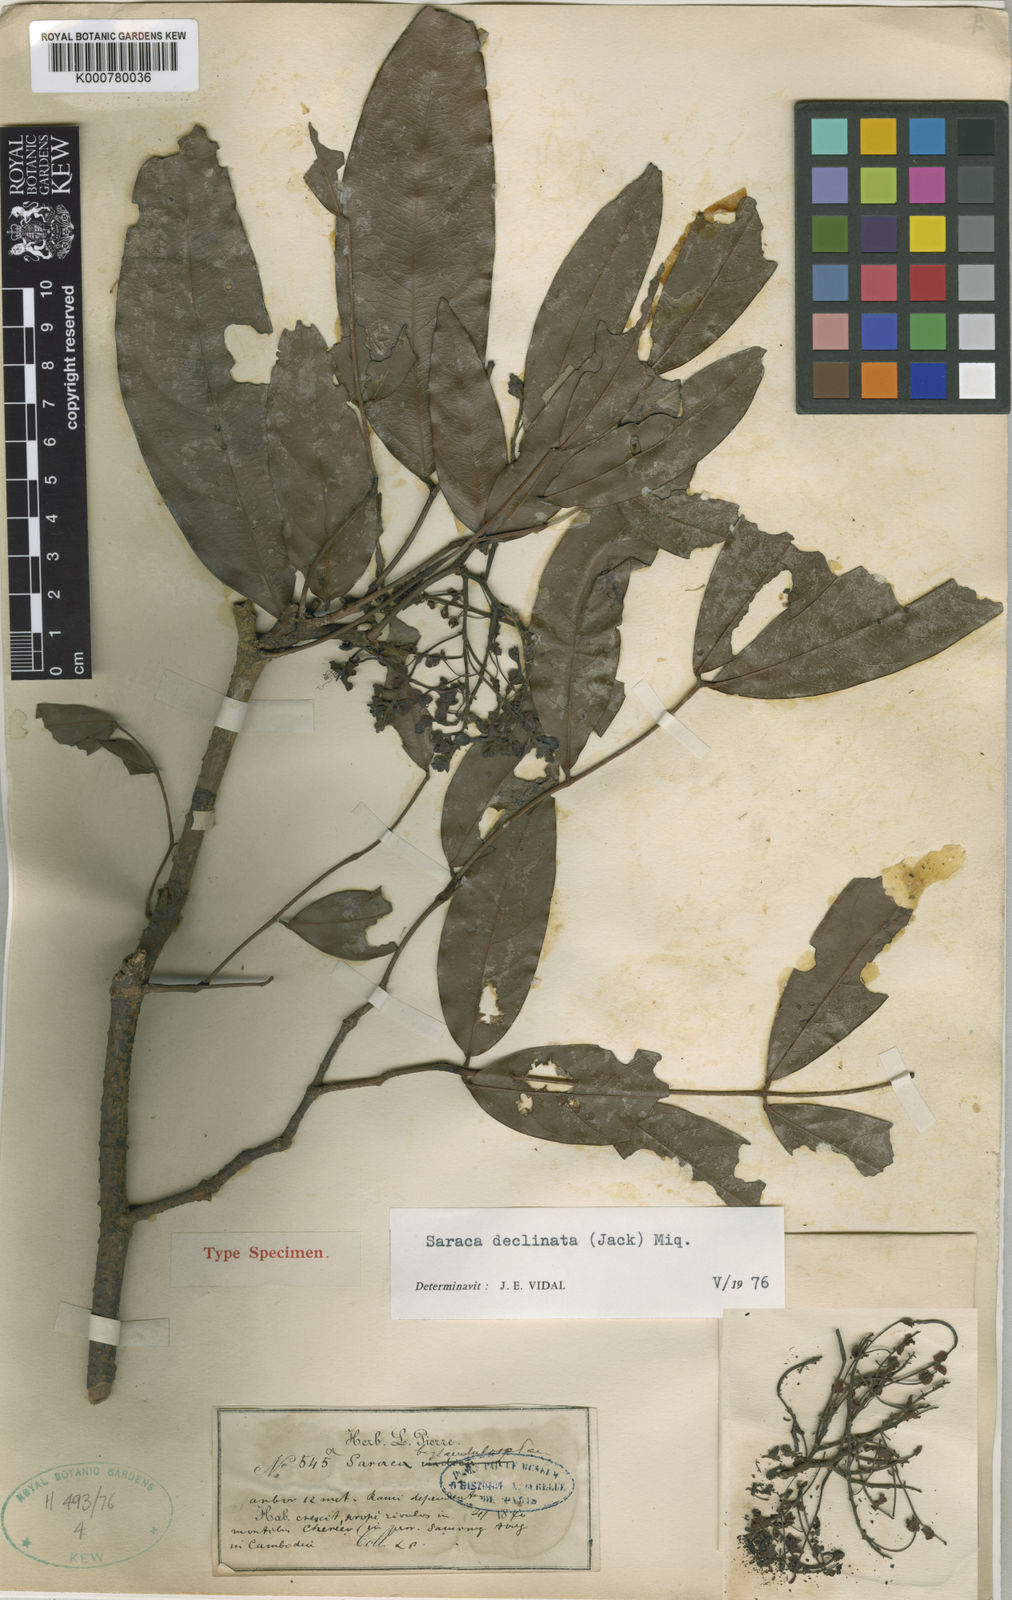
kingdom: Plantae
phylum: Tracheophyta
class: Magnoliopsida
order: Fabales
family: Fabaceae
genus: Saraca
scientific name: Saraca declinata
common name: Red saraca
